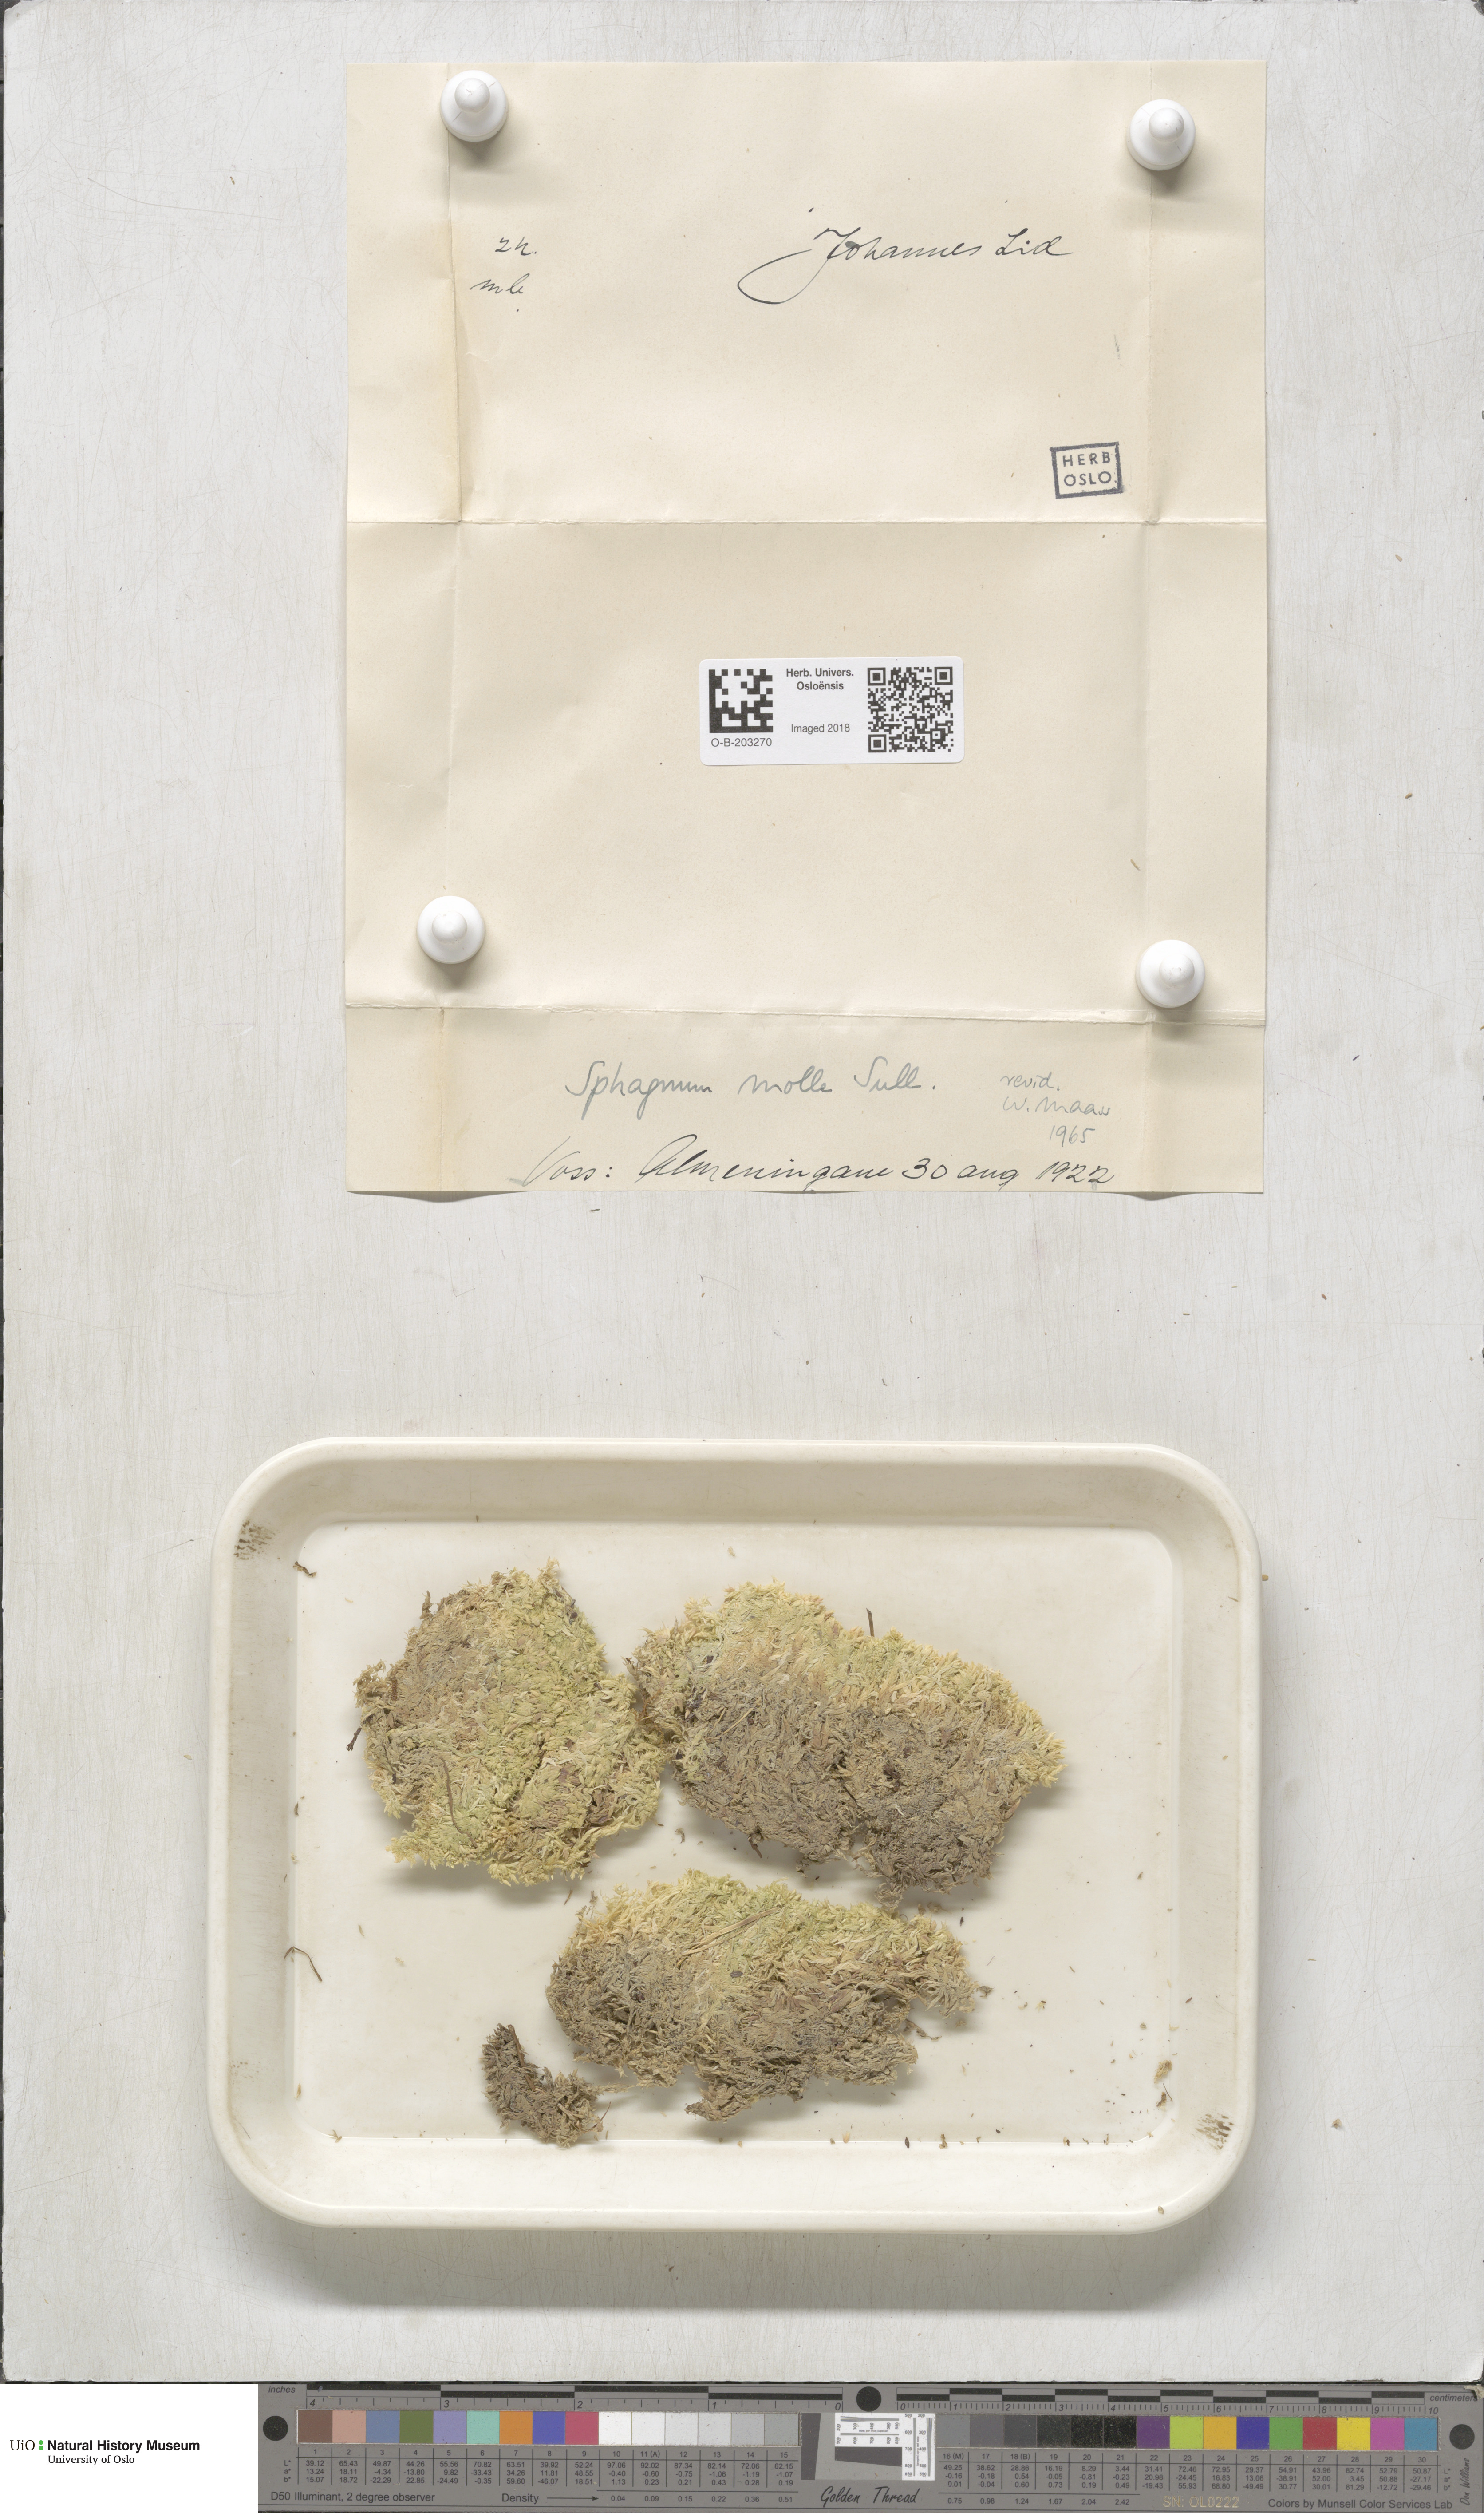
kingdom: Plantae
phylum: Bryophyta
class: Sphagnopsida
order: Sphagnales
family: Sphagnaceae
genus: Sphagnum
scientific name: Sphagnum molle
